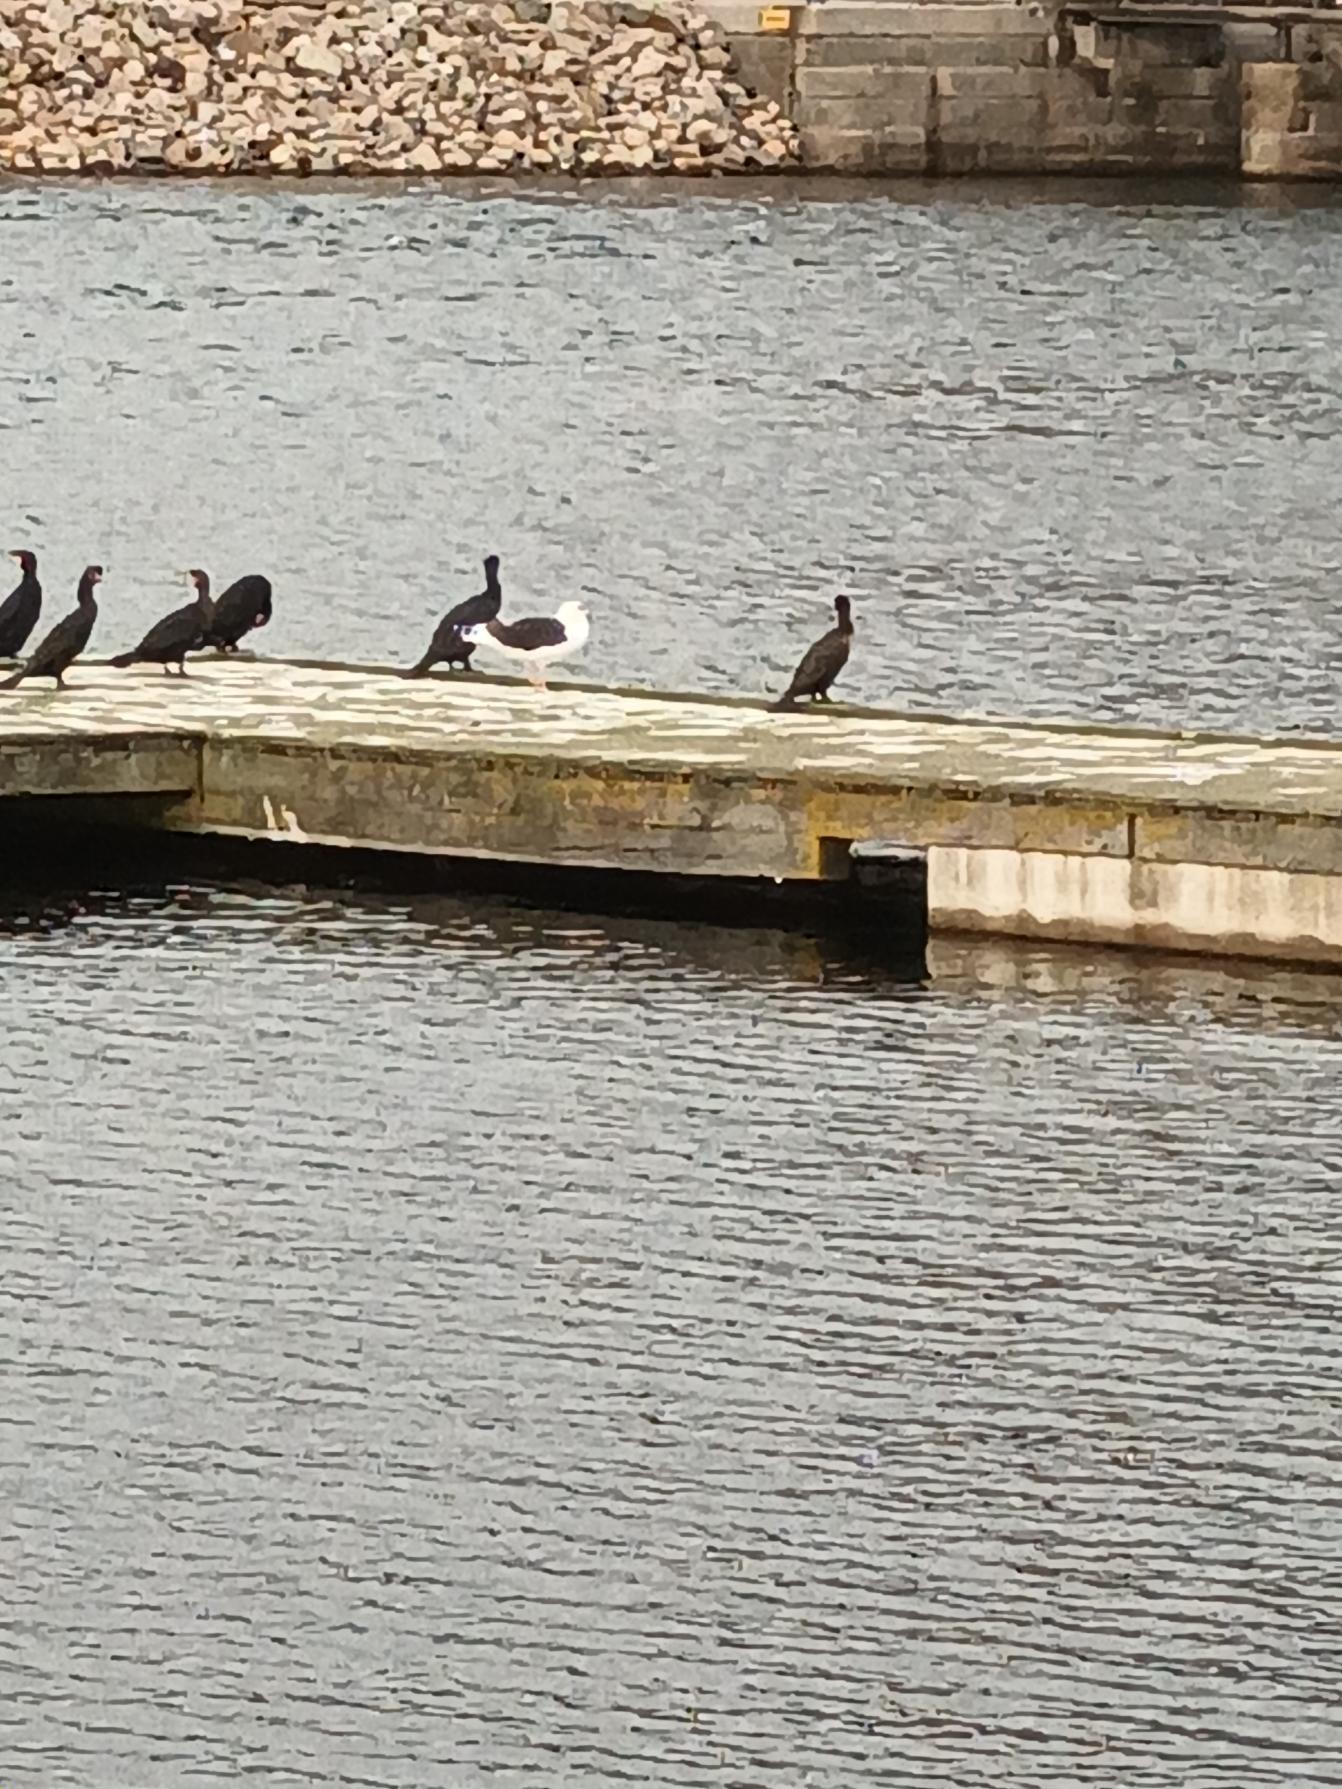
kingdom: Animalia
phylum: Chordata
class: Aves
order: Charadriiformes
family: Laridae
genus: Larus
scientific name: Larus marinus
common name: Svartbag
